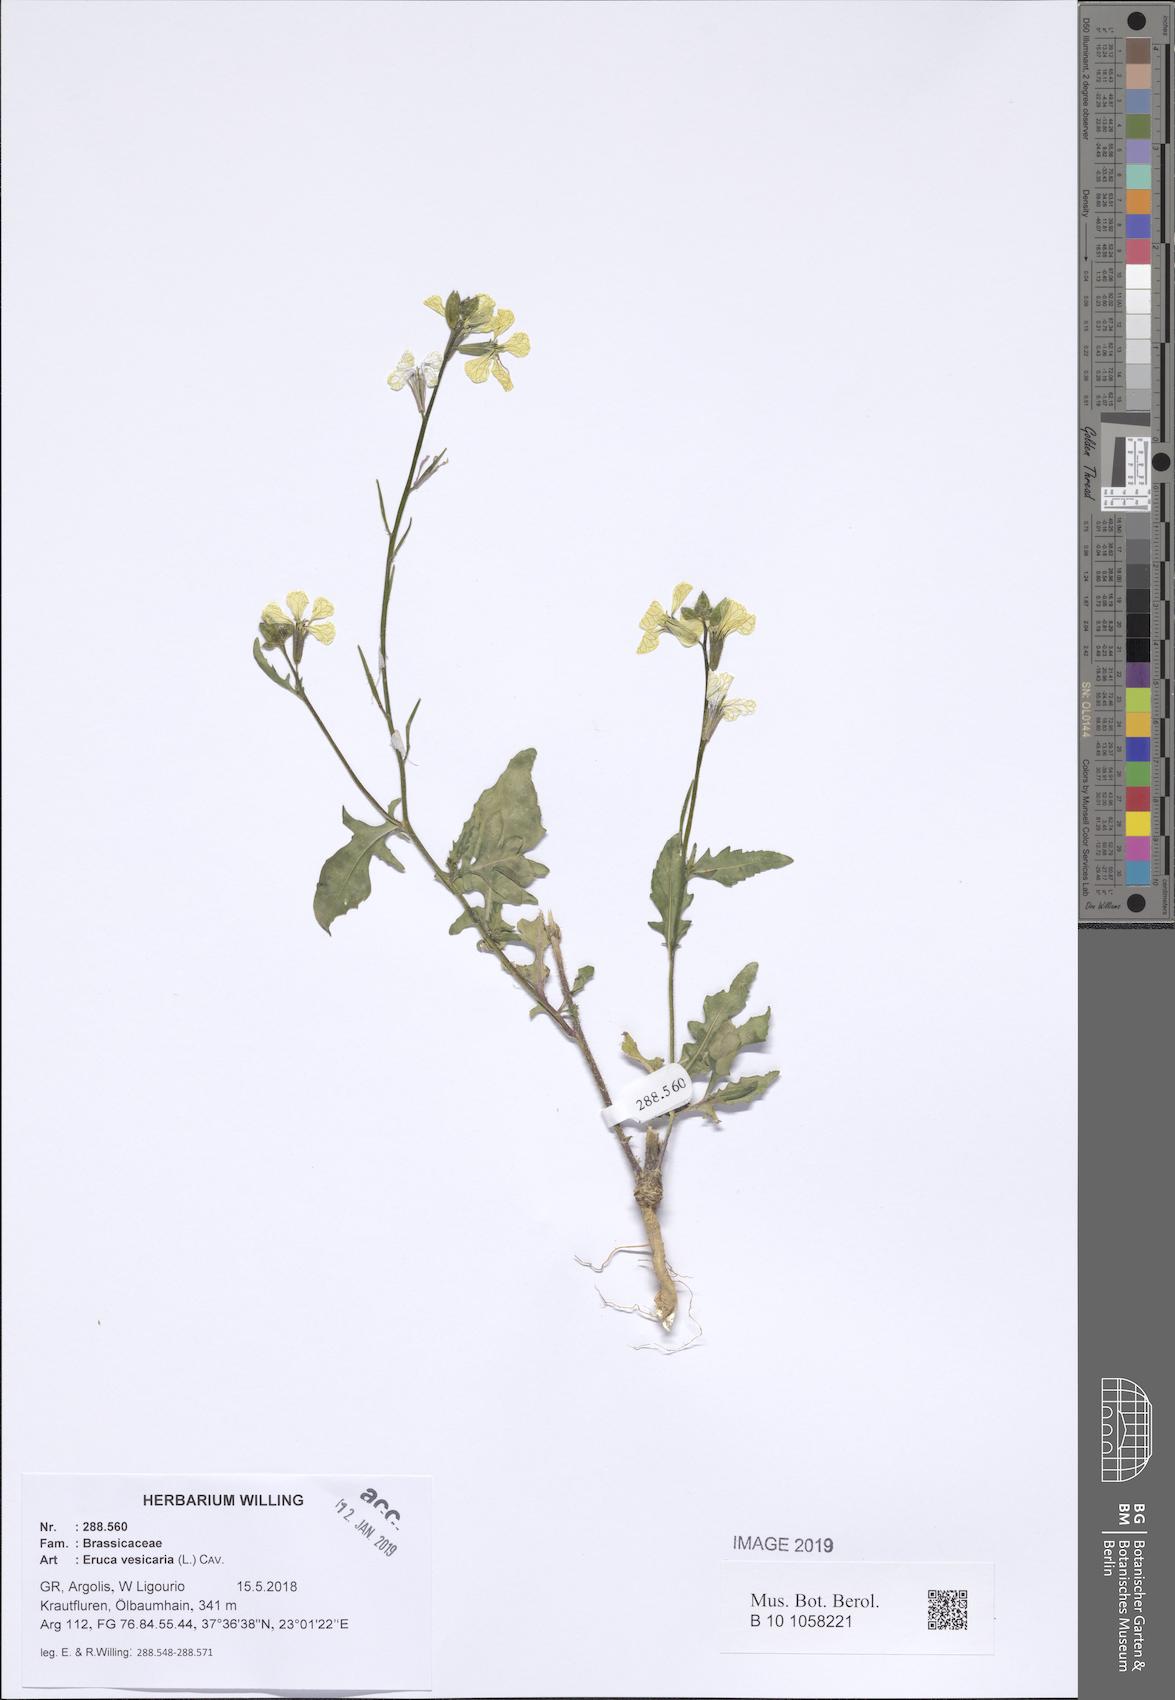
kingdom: Plantae
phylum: Tracheophyta
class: Magnoliopsida
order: Brassicales
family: Brassicaceae
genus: Eruca
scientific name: Eruca vesicaria
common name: Garden rocket
